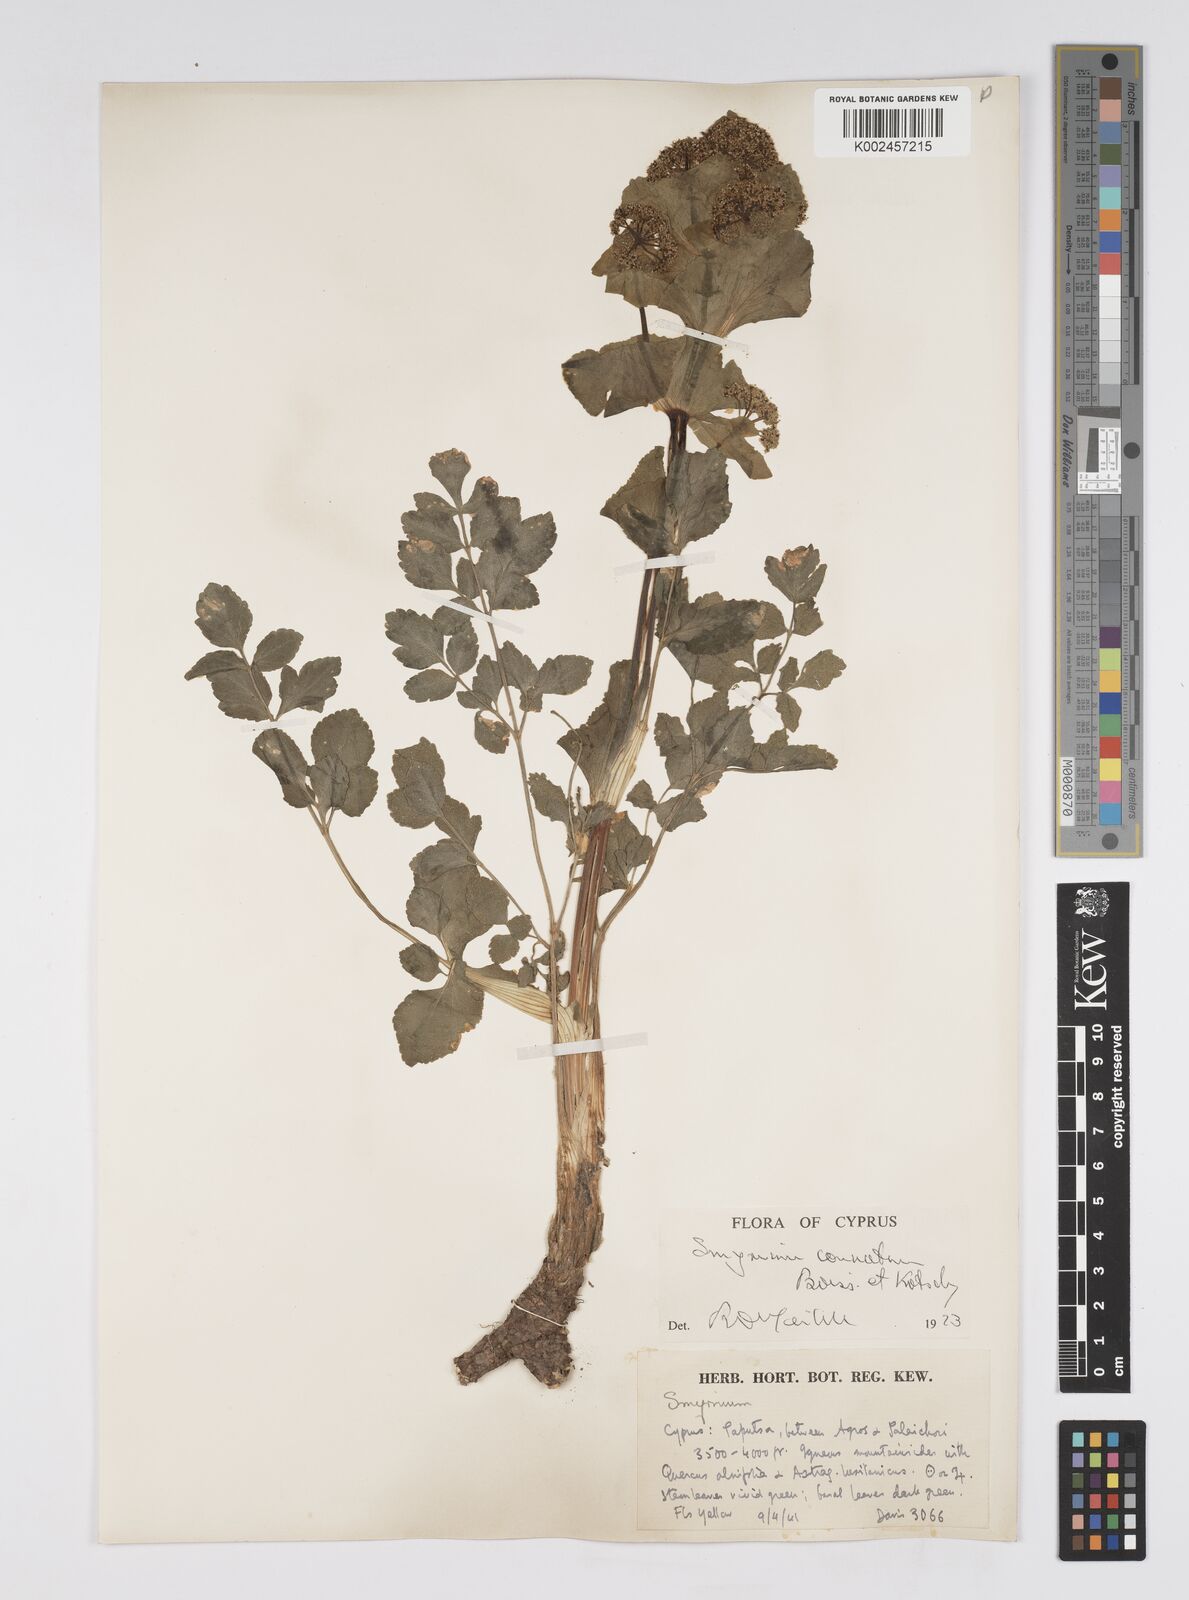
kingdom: Plantae
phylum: Tracheophyta
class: Magnoliopsida
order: Apiales
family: Apiaceae
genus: Smyrnium
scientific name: Smyrnium connatum
